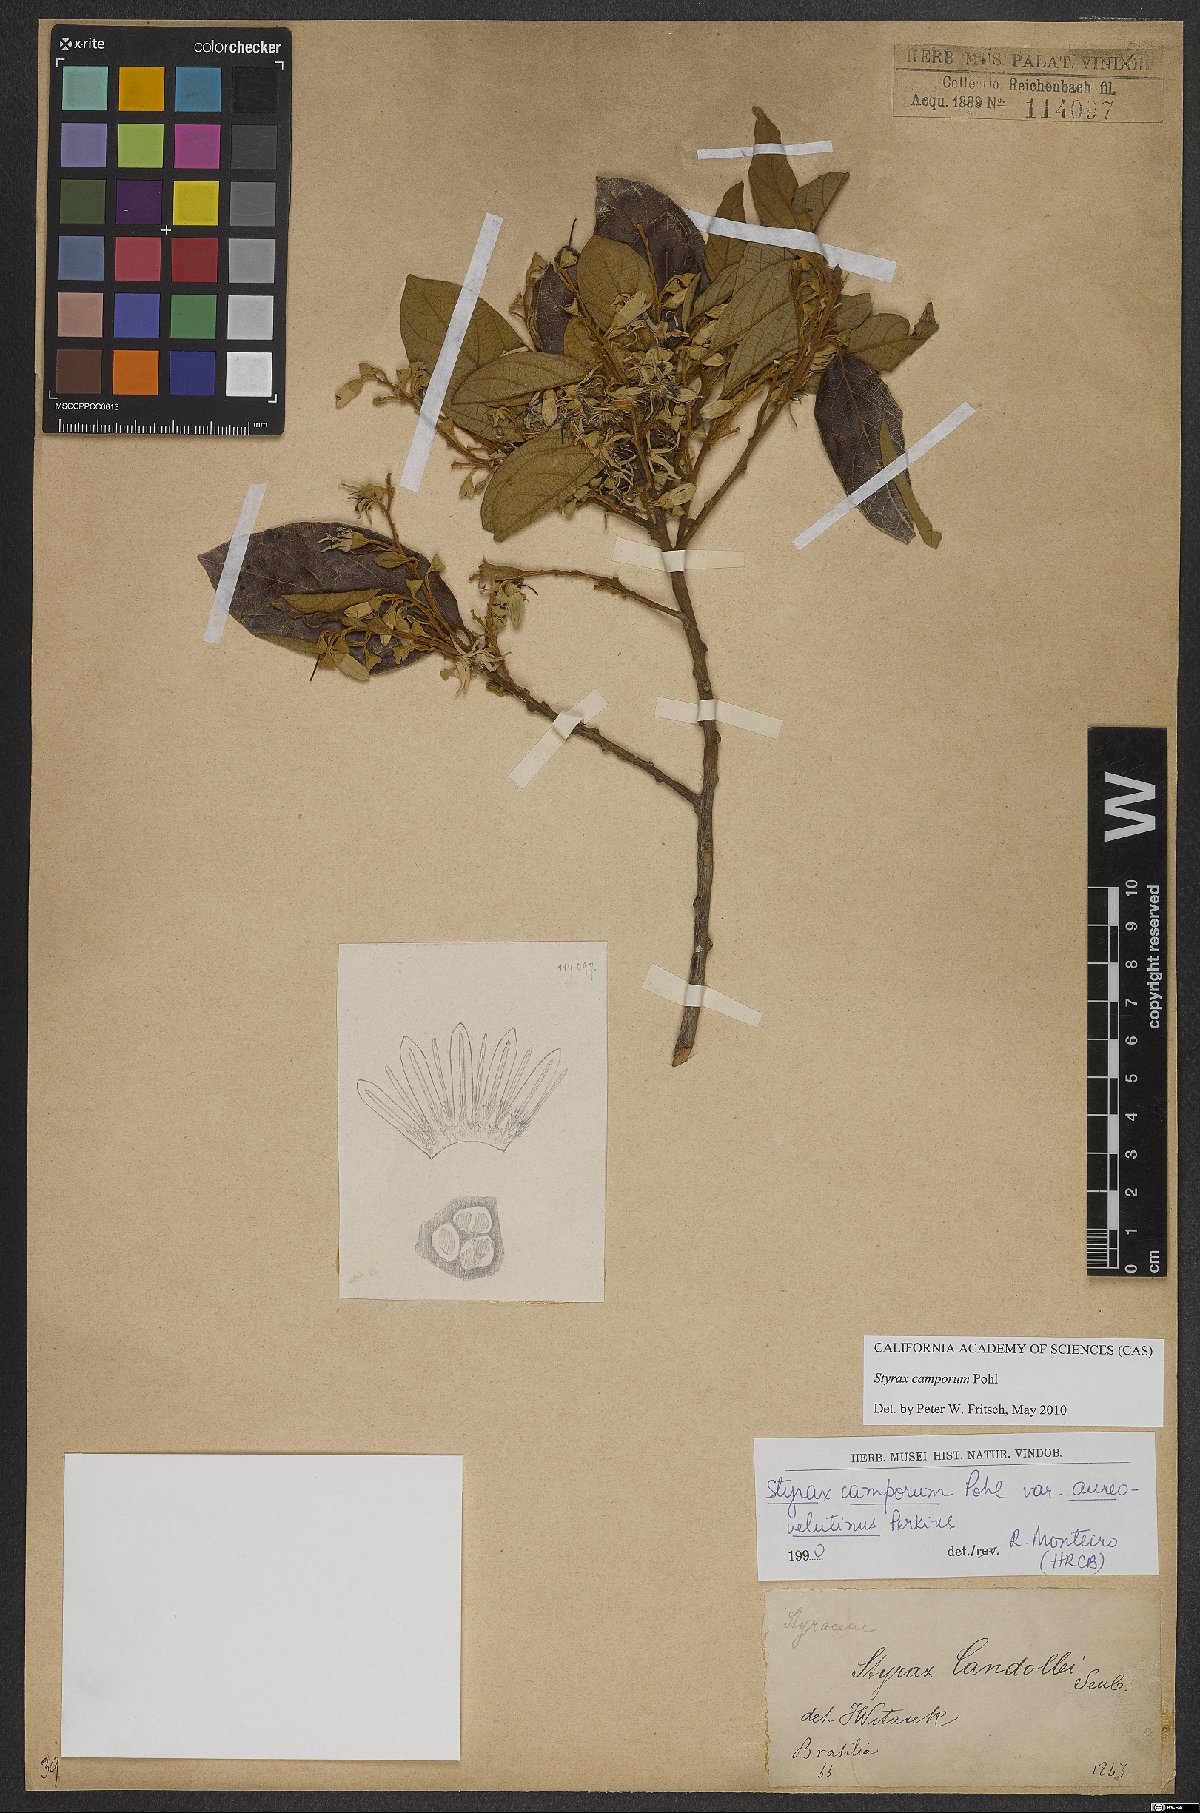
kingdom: Plantae
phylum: Tracheophyta
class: Magnoliopsida
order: Ericales
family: Styracaceae
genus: Styrax
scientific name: Styrax camporum
